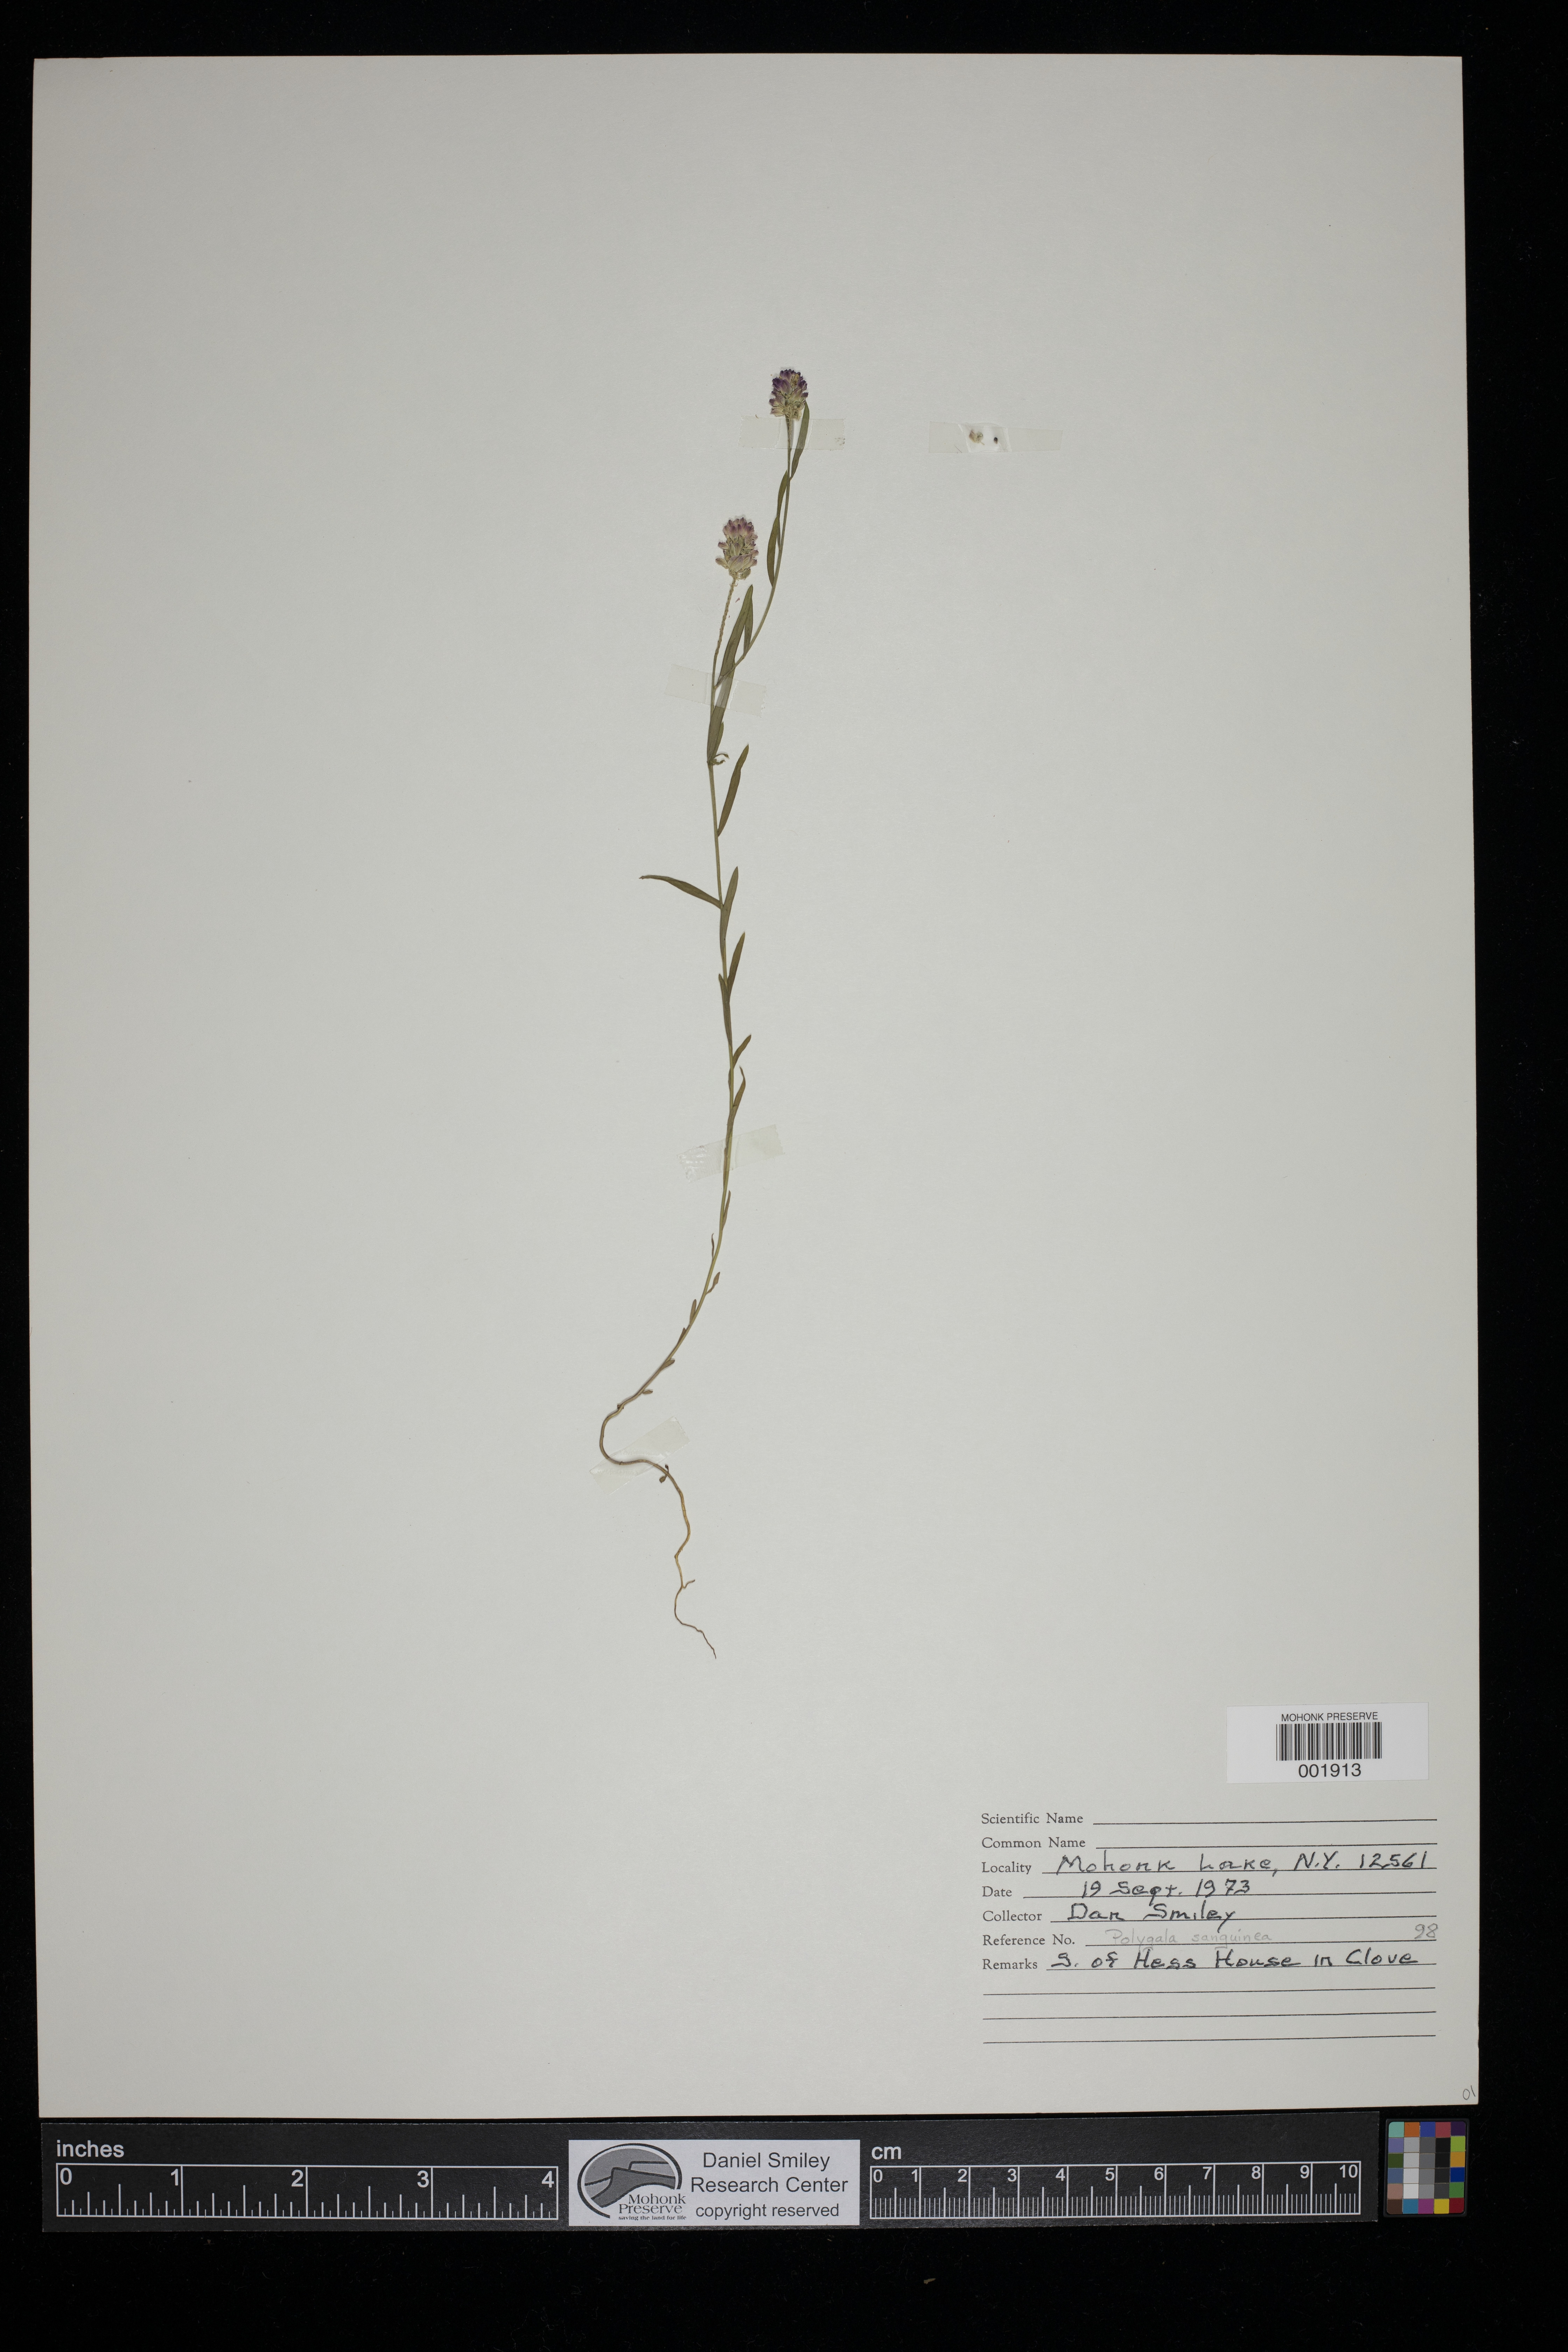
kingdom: Plantae
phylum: Tracheophyta
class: Magnoliopsida
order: Fabales
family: Polygalaceae
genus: Polygala
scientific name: Polygala sanguinea
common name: Blood milkwort
